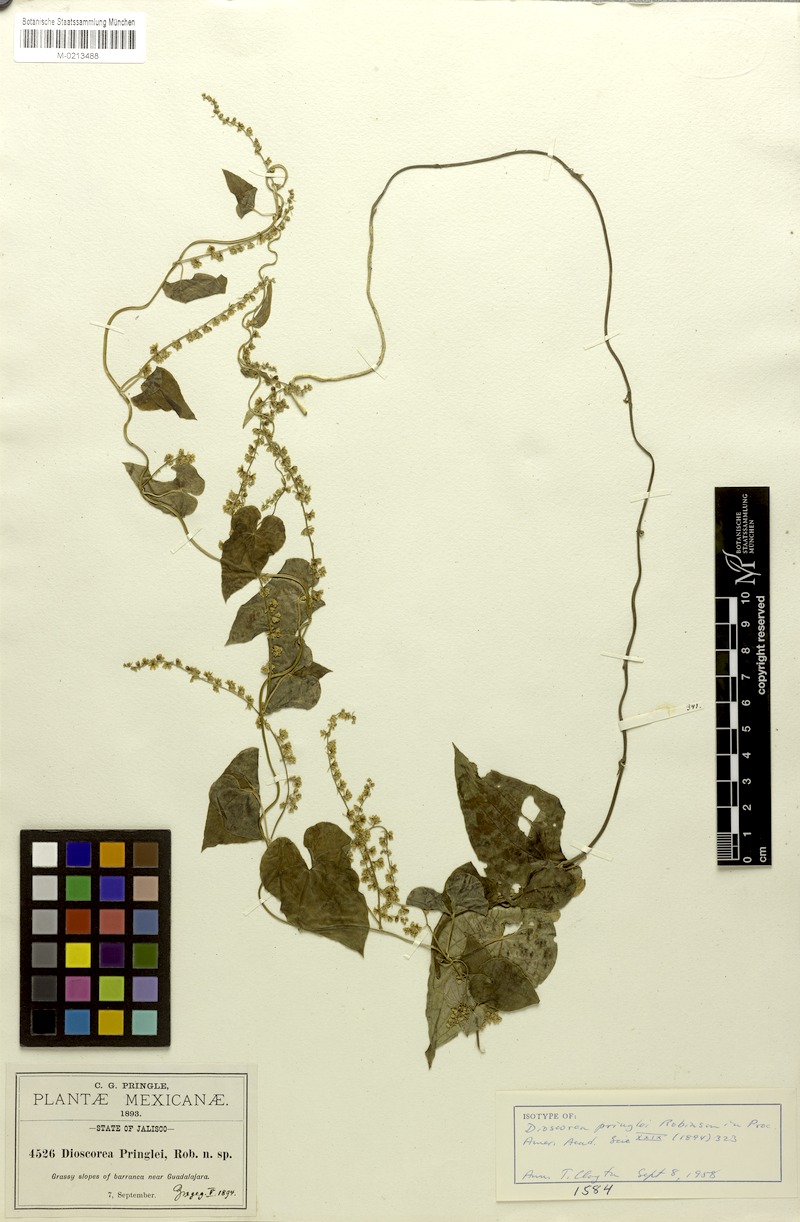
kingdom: Plantae
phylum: Tracheophyta
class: Liliopsida
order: Dioscoreales
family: Dioscoreaceae
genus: Dioscorea
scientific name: Dioscorea pringlei
